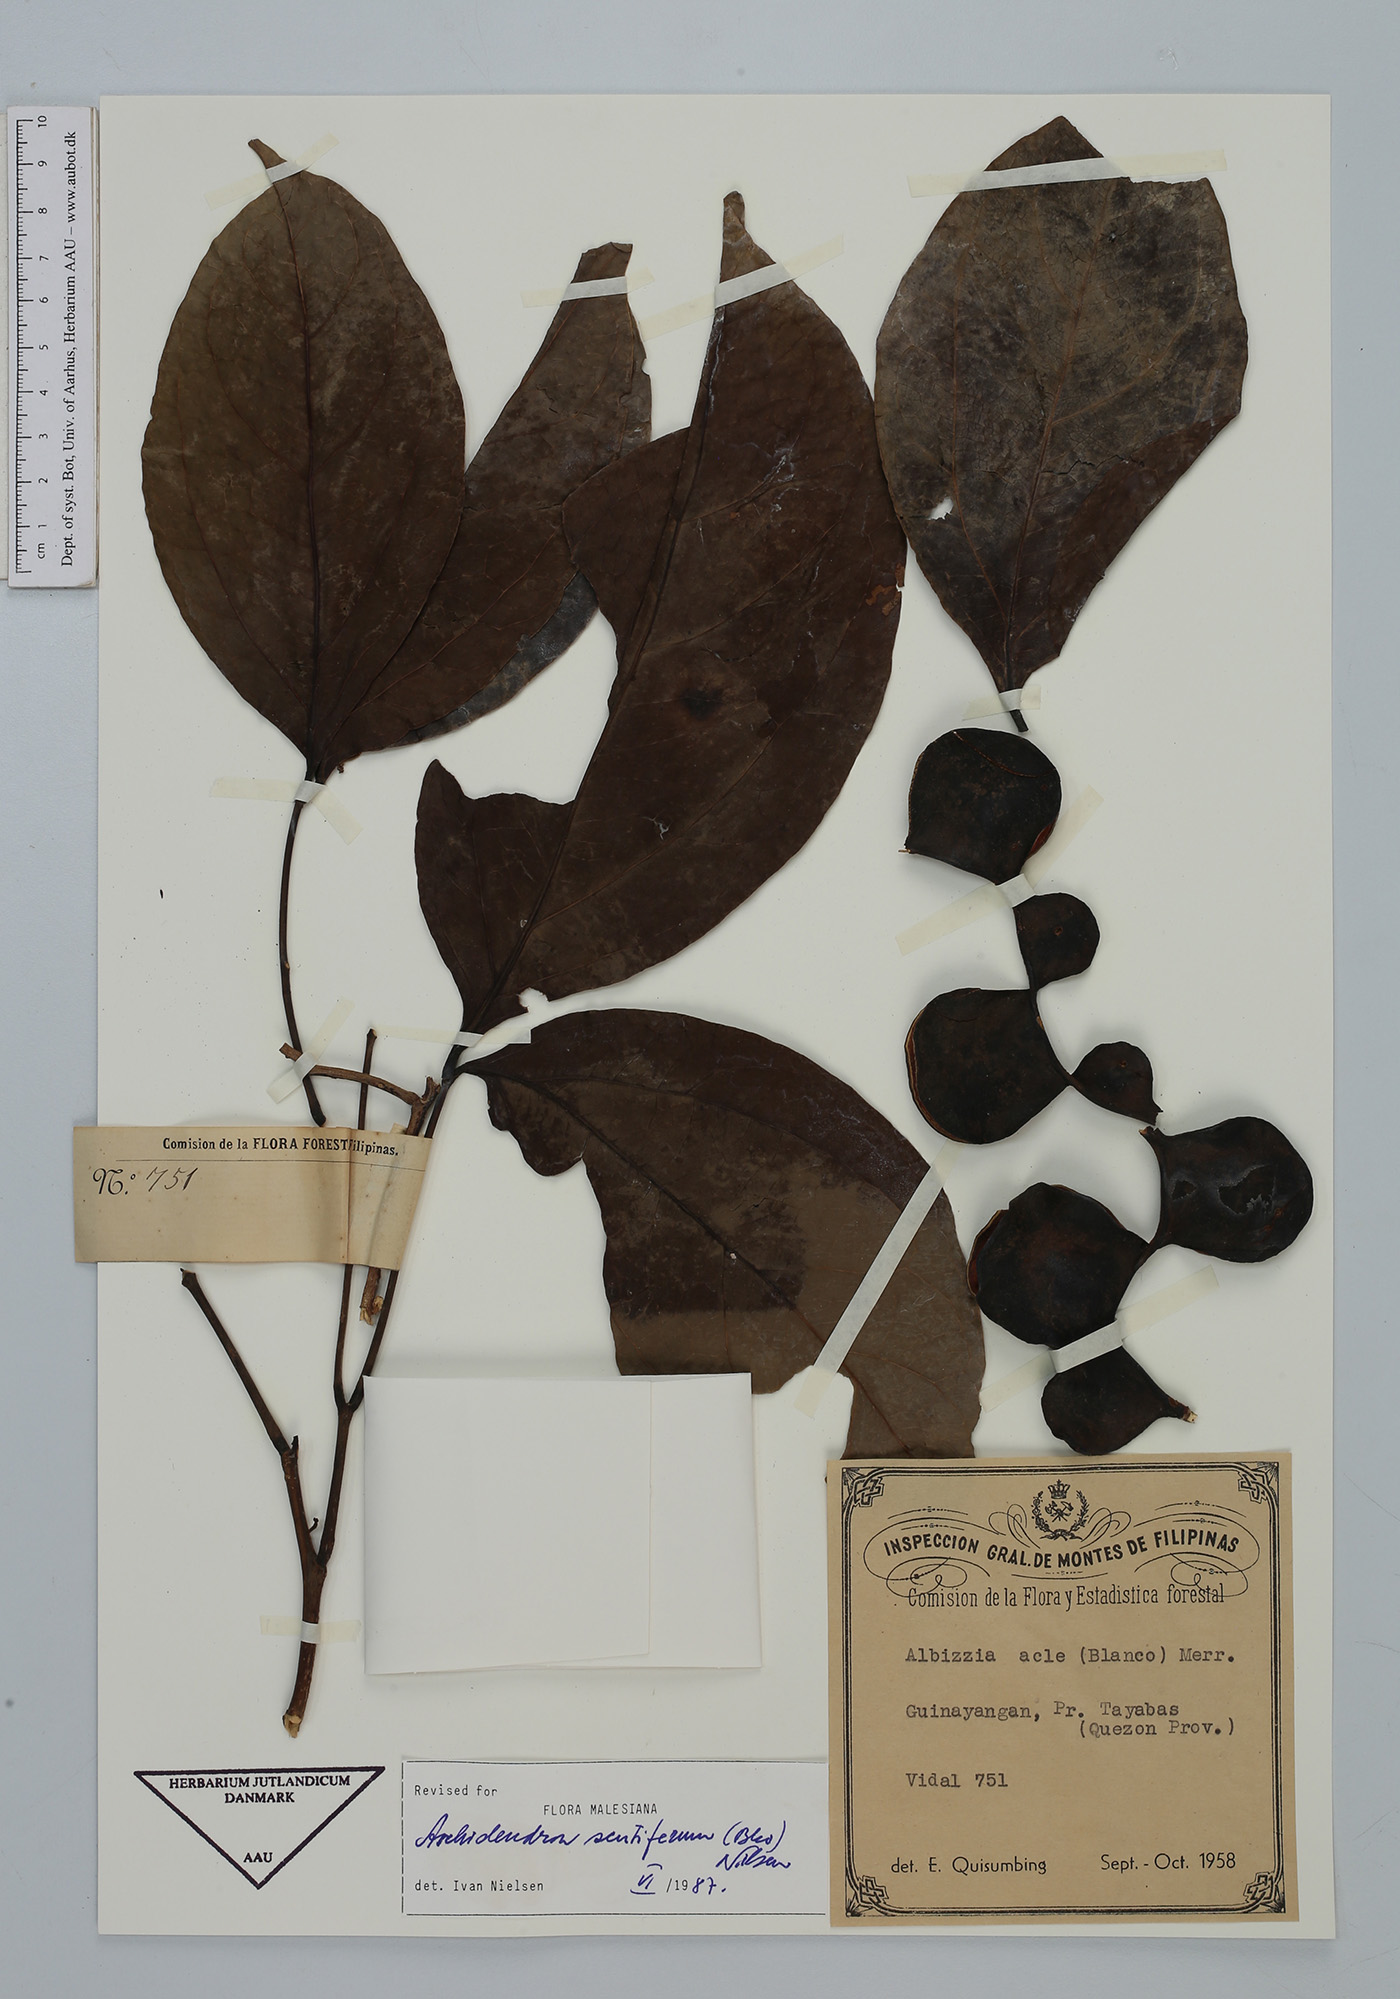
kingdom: Plantae
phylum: Tracheophyta
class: Magnoliopsida
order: Fabales
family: Fabaceae
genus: Archidendron
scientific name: Archidendron scutiferum
